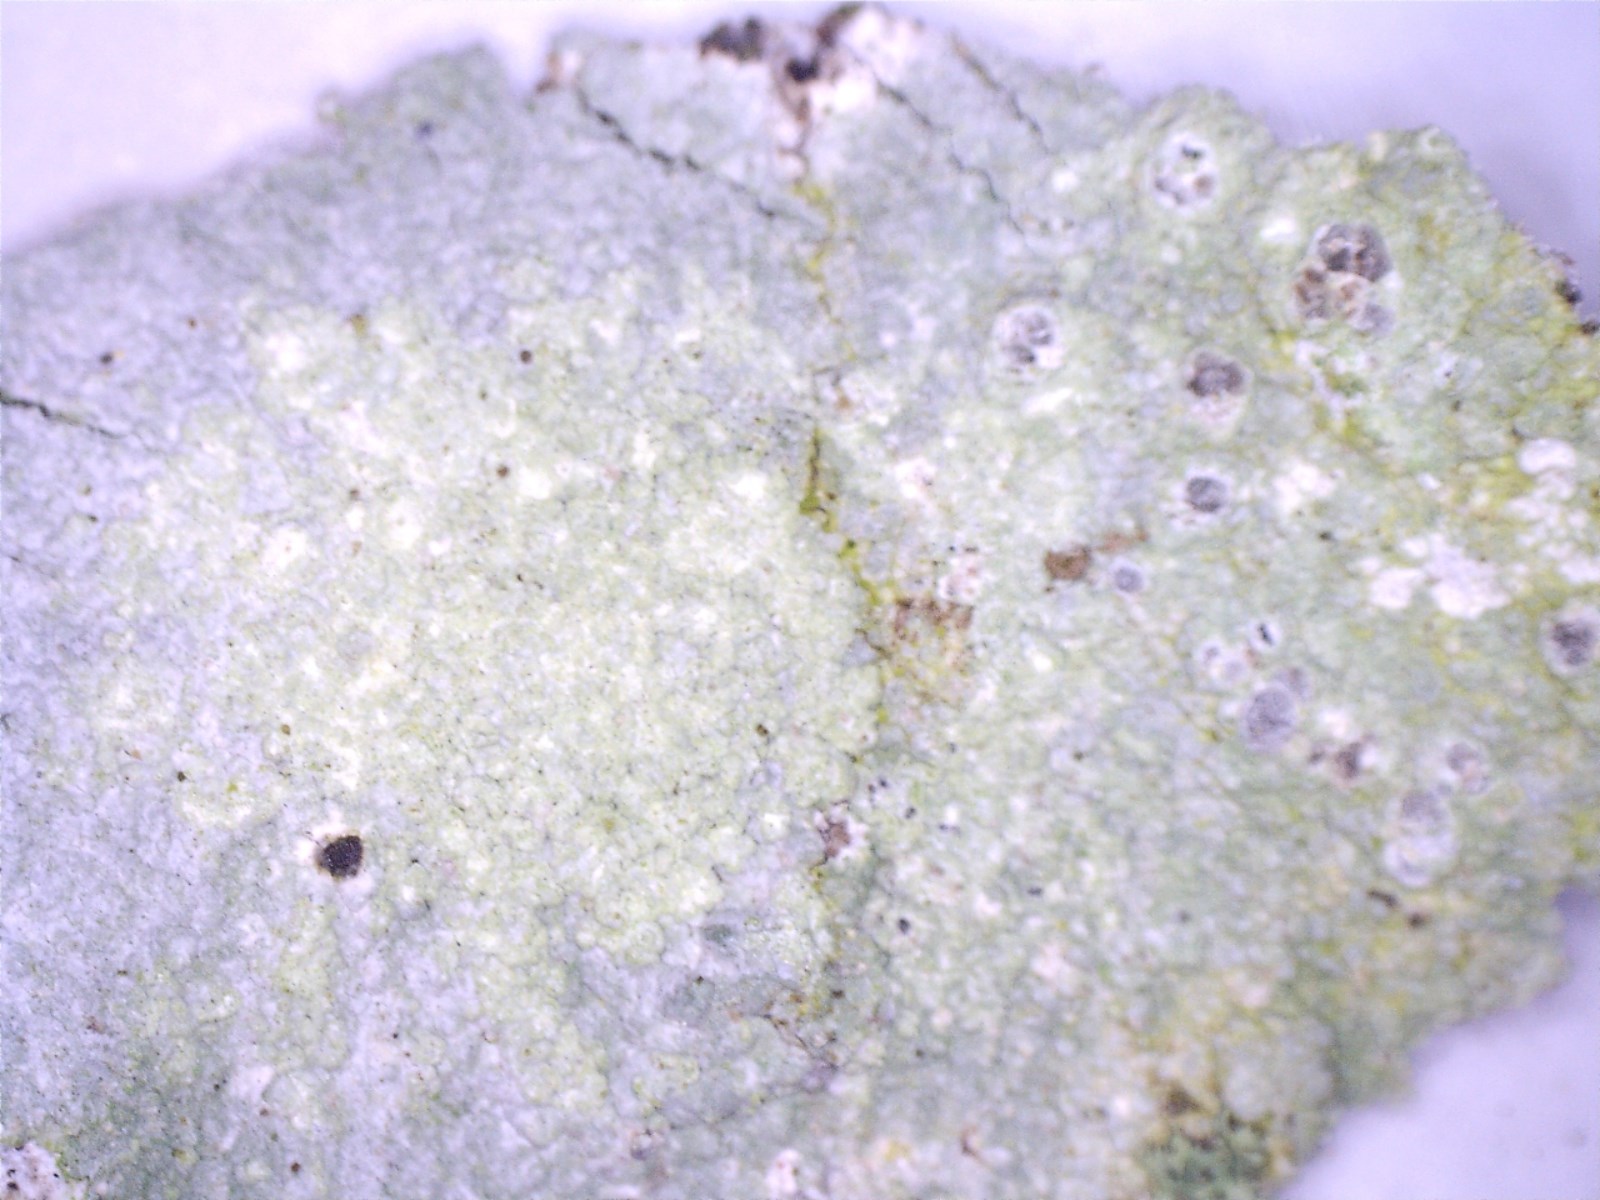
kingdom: Fungi
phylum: Ascomycota
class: Lecanoromycetes
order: Ostropales
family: Phlyctidaceae
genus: Phlyctis
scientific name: Phlyctis argena
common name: almindelig sølvlav
